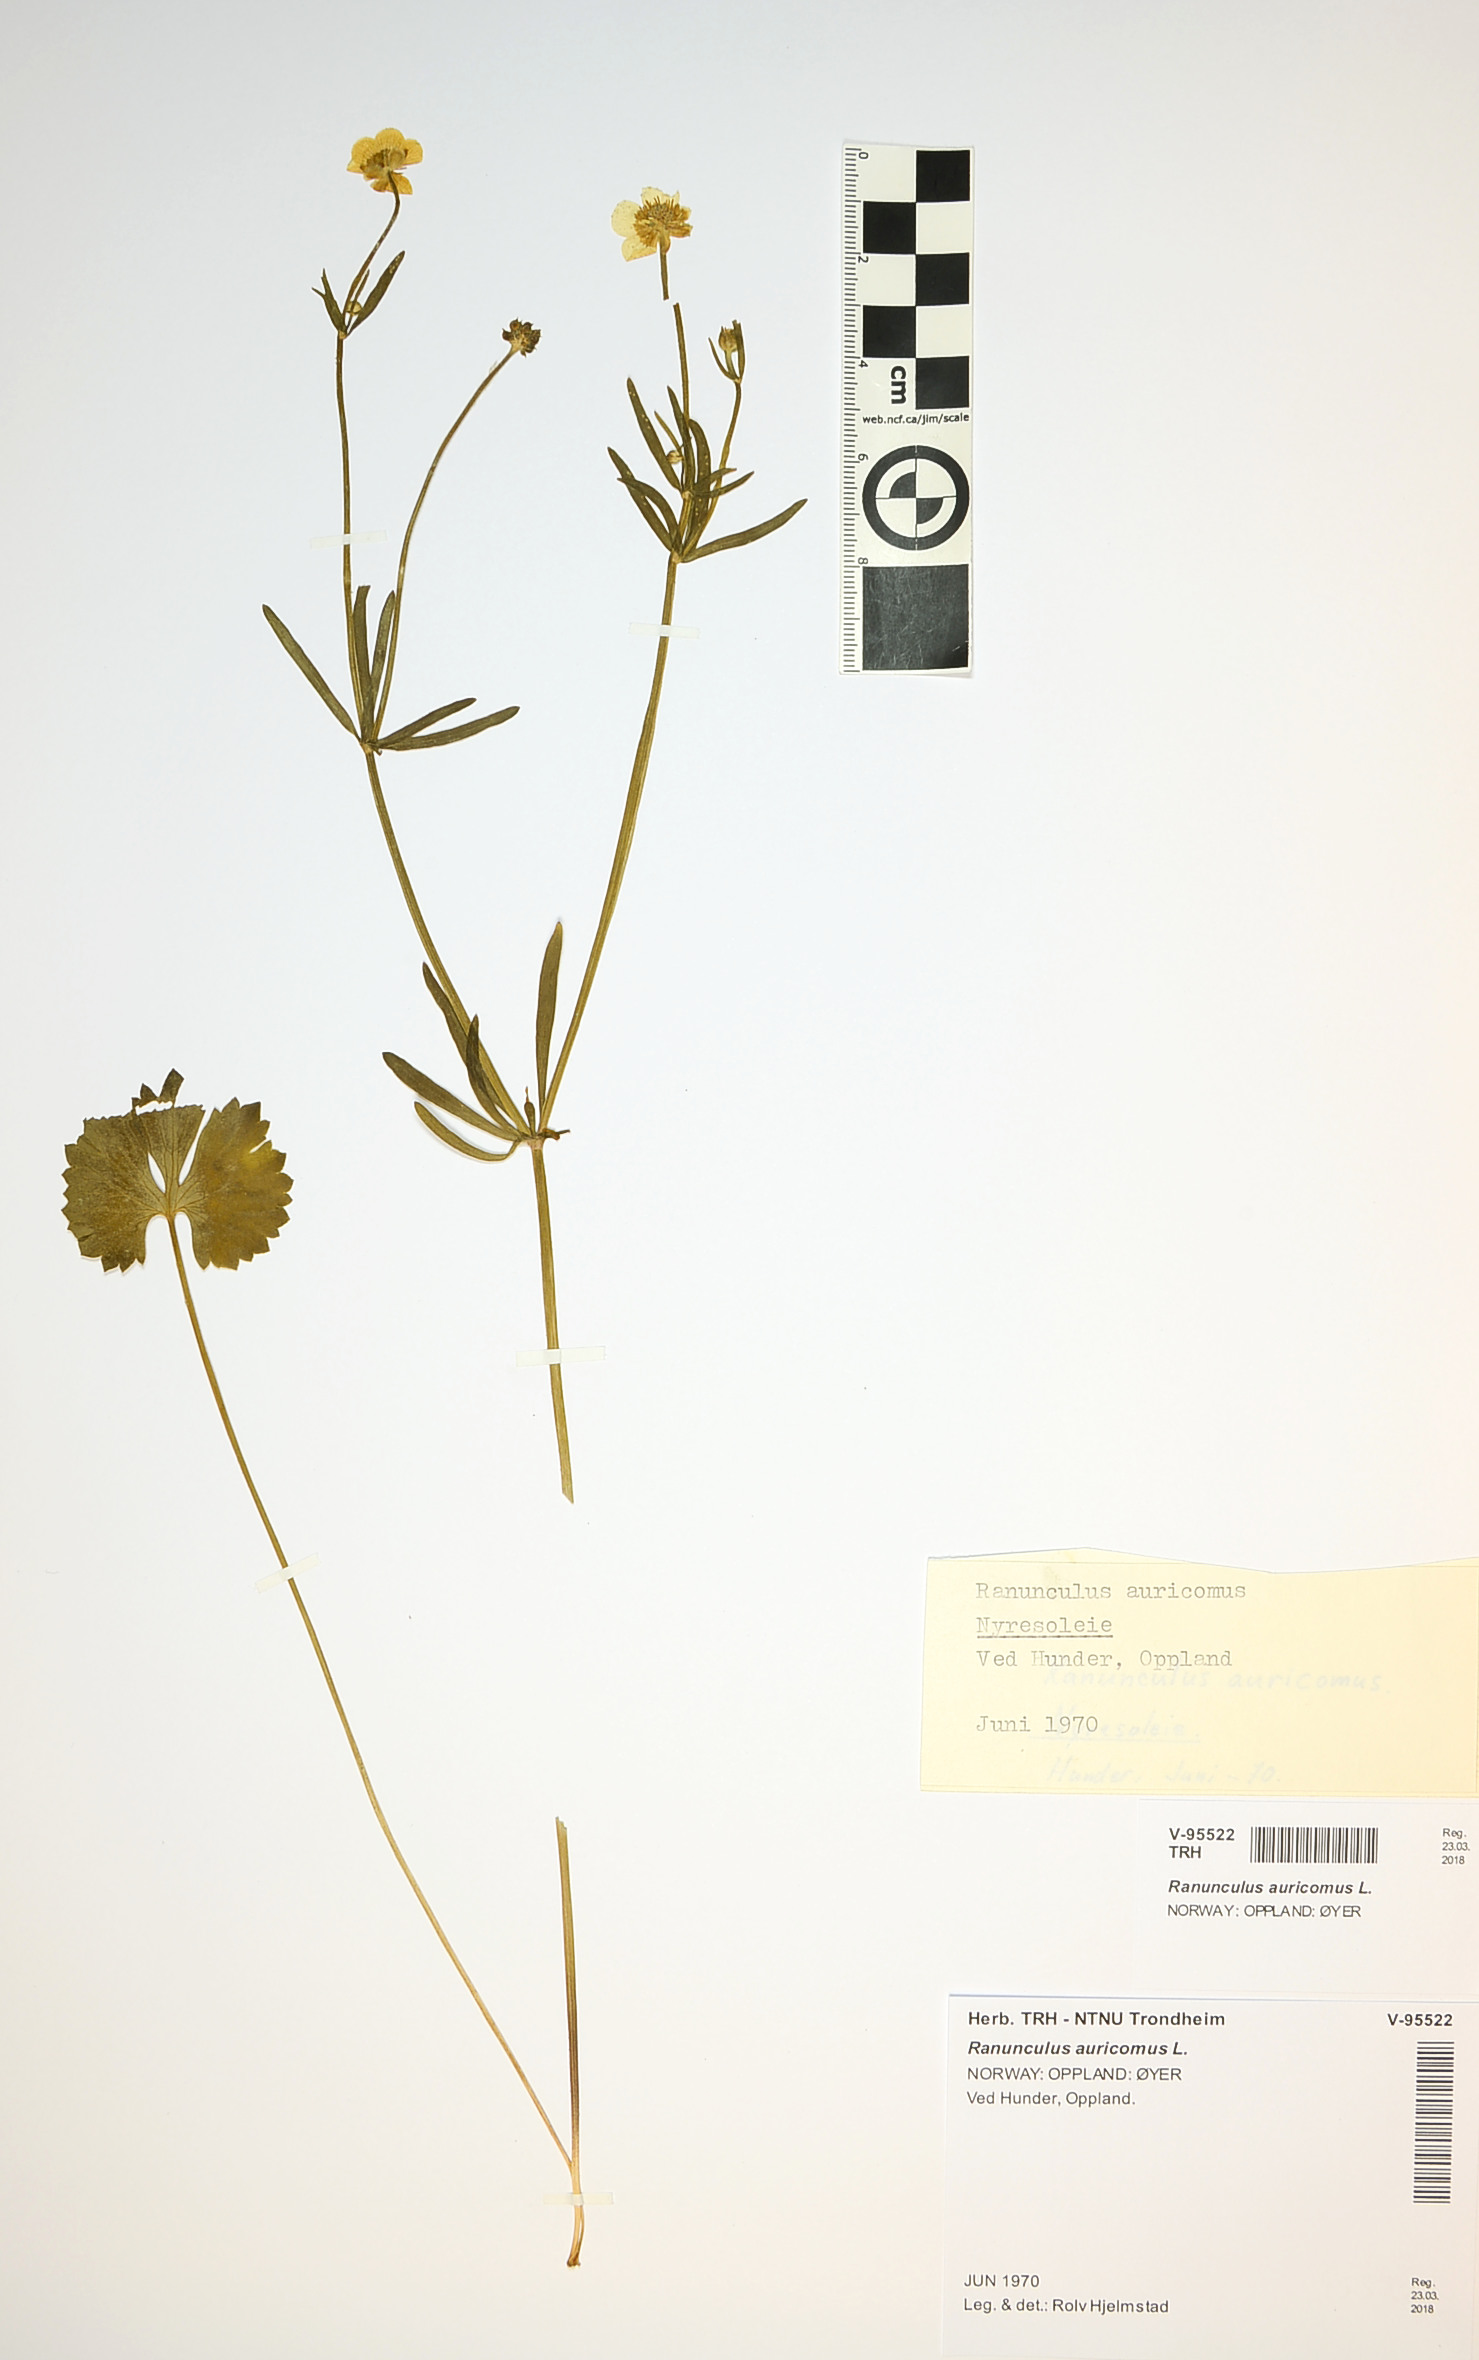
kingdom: Plantae
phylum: Tracheophyta
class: Magnoliopsida
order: Ranunculales
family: Ranunculaceae
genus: Ranunculus
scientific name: Ranunculus auricomus
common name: Goldilocks buttercup
